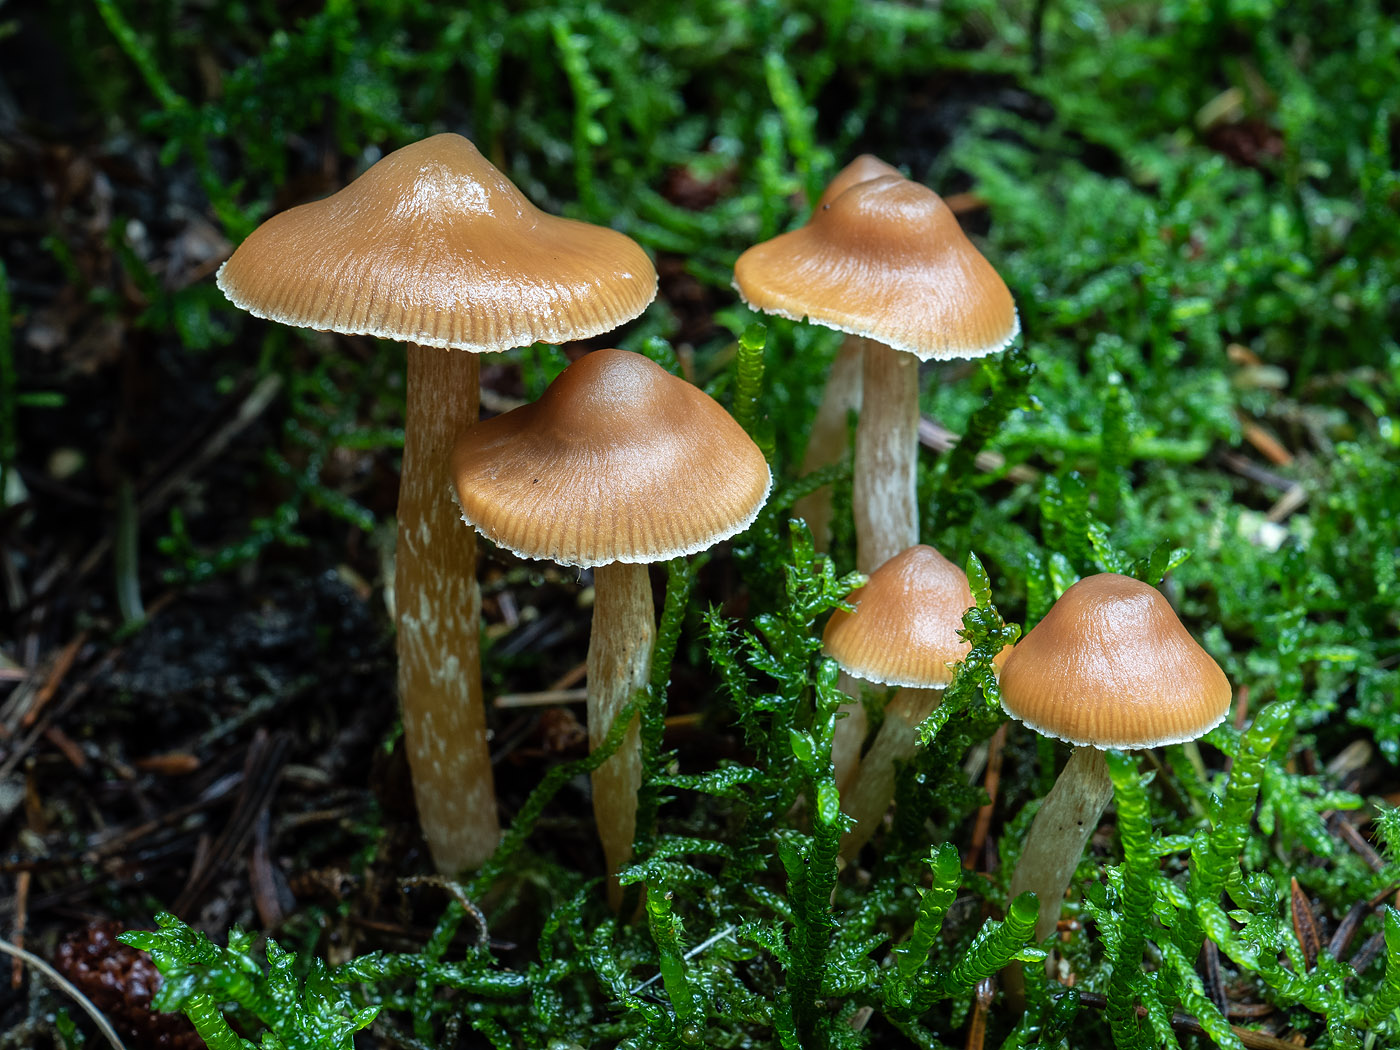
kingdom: Fungi
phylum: Basidiomycota
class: Agaricomycetes
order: Agaricales
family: Cortinariaceae
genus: Cortinarius
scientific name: Cortinarius
